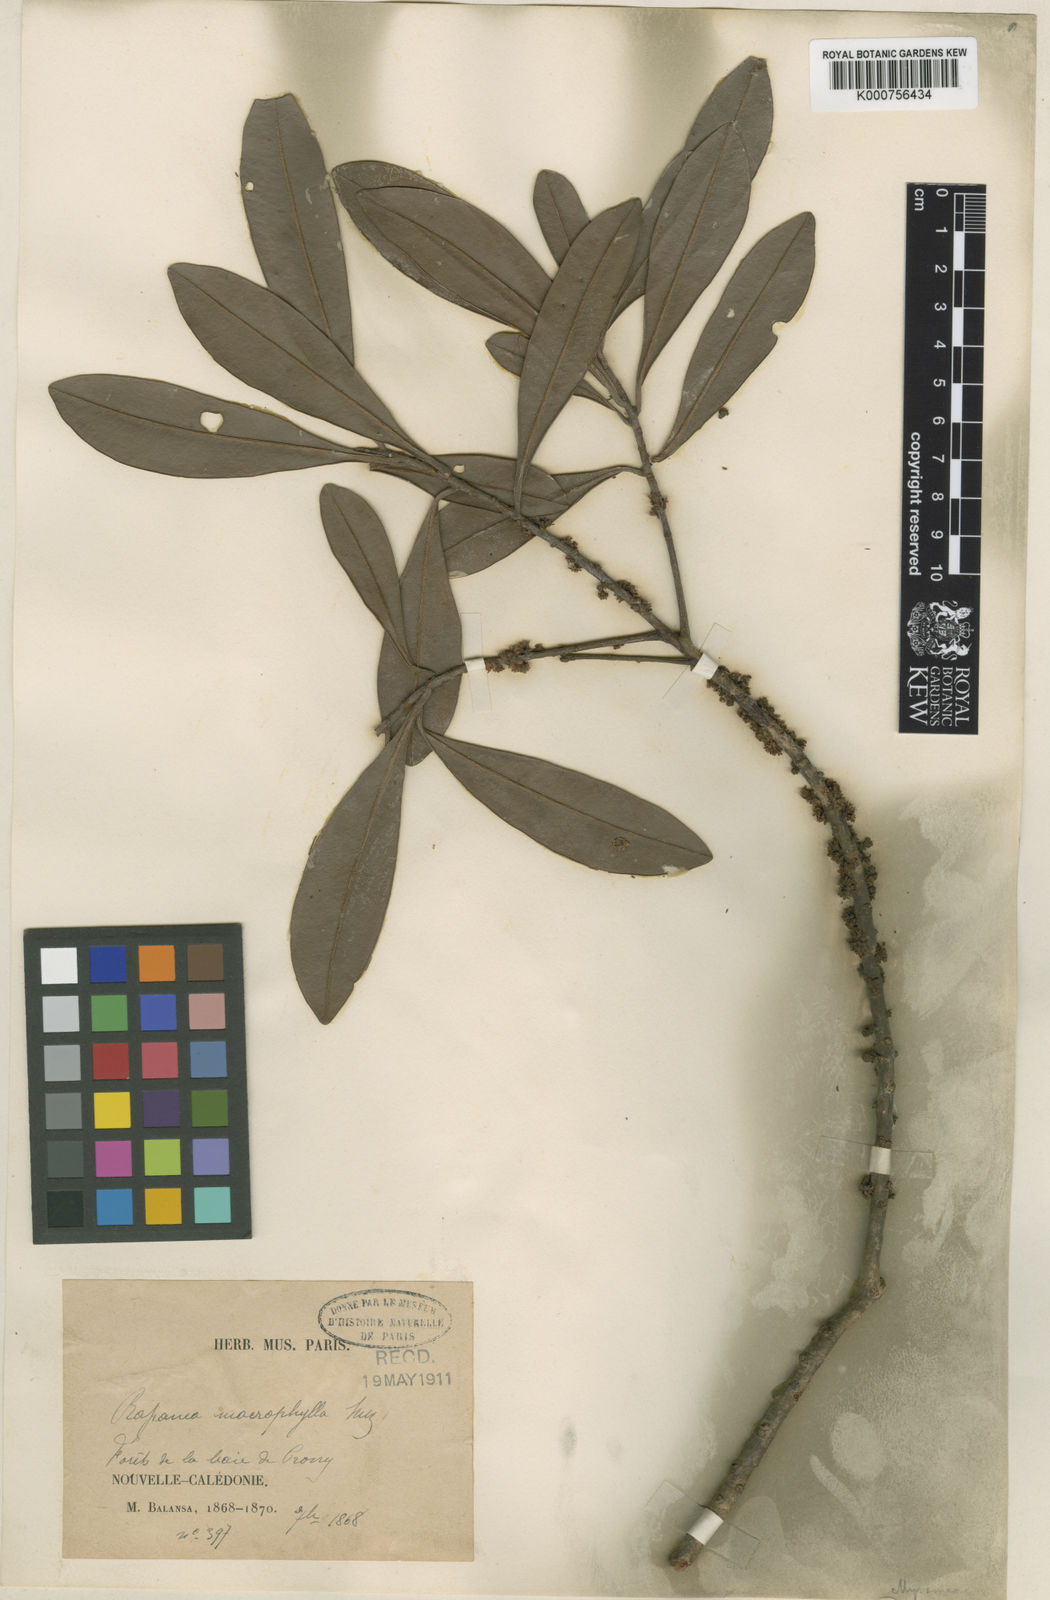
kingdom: Plantae
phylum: Tracheophyta
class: Magnoliopsida
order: Ericales
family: Primulaceae
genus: Myrsine
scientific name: Myrsine
